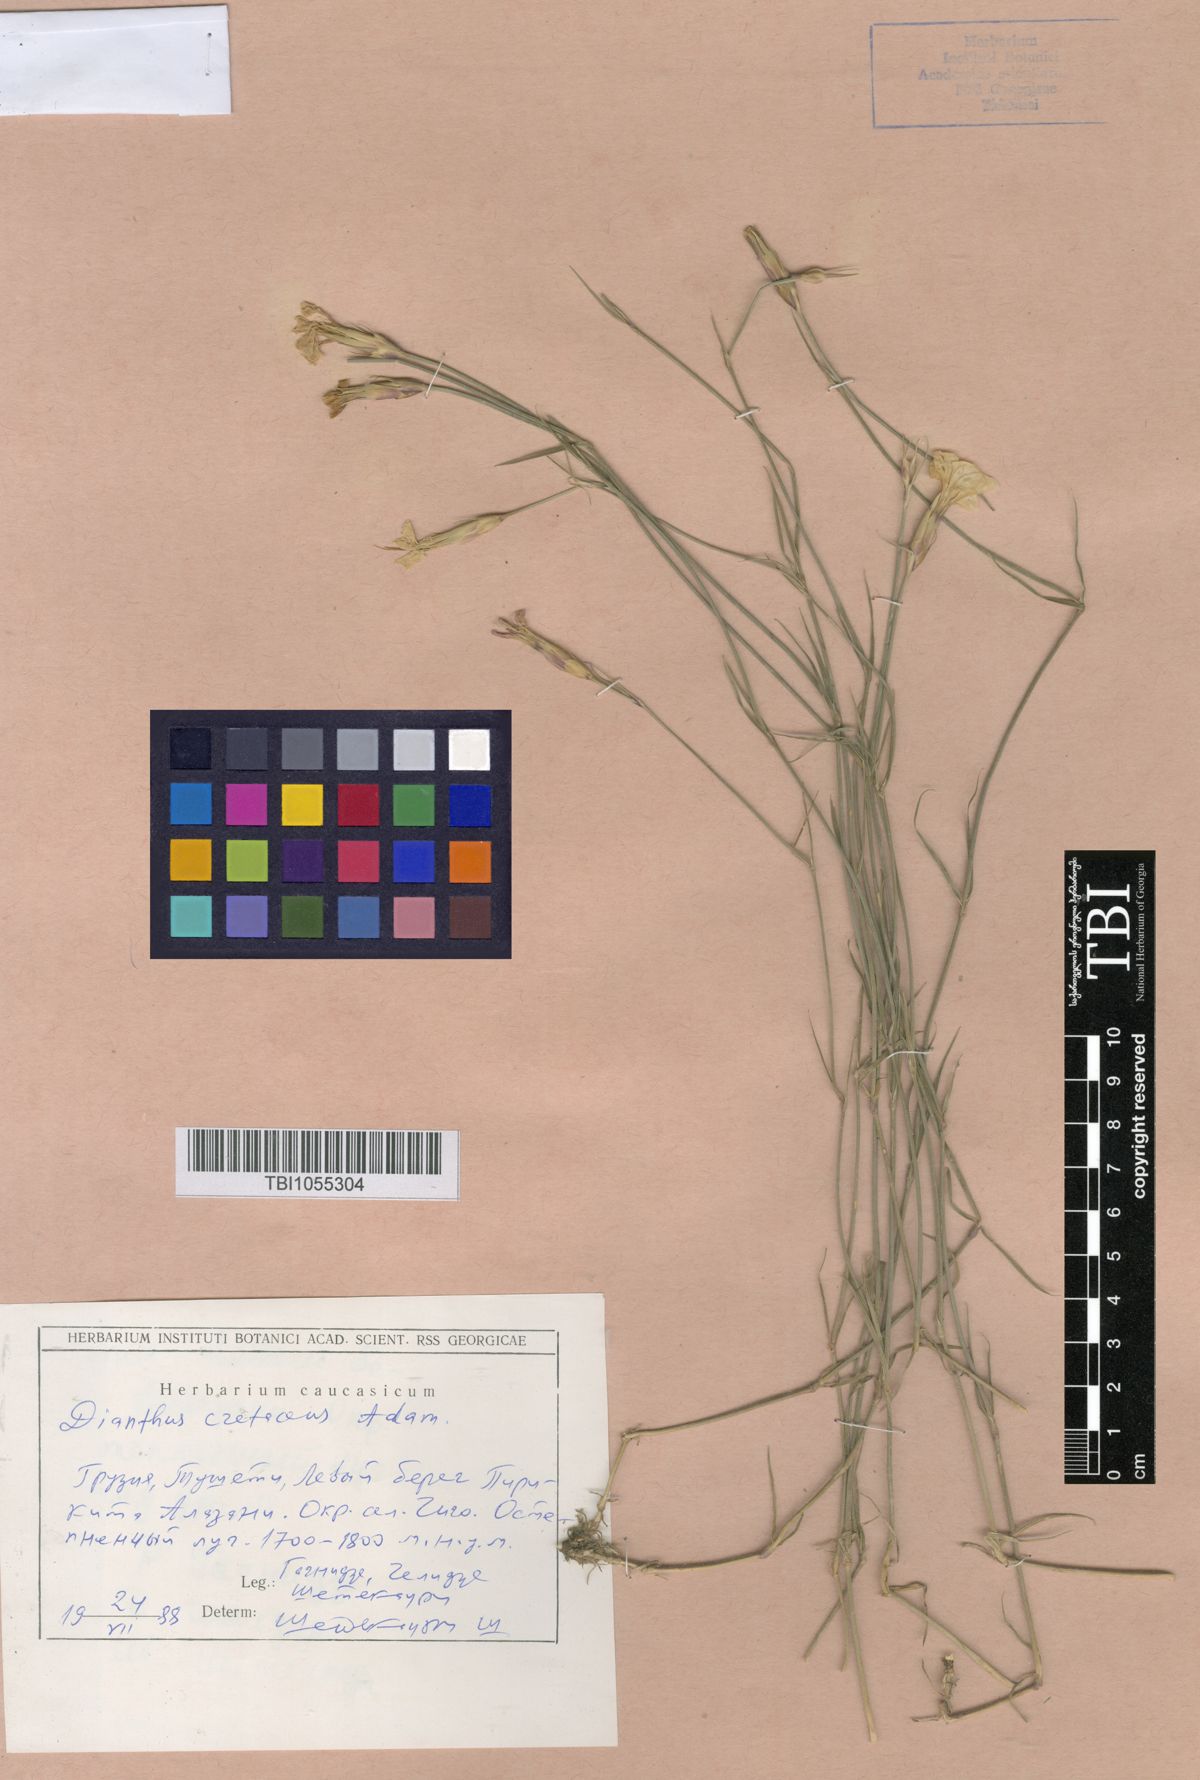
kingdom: Plantae
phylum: Tracheophyta
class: Magnoliopsida
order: Caryophyllales
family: Caryophyllaceae
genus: Dianthus
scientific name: Dianthus cretaceus
